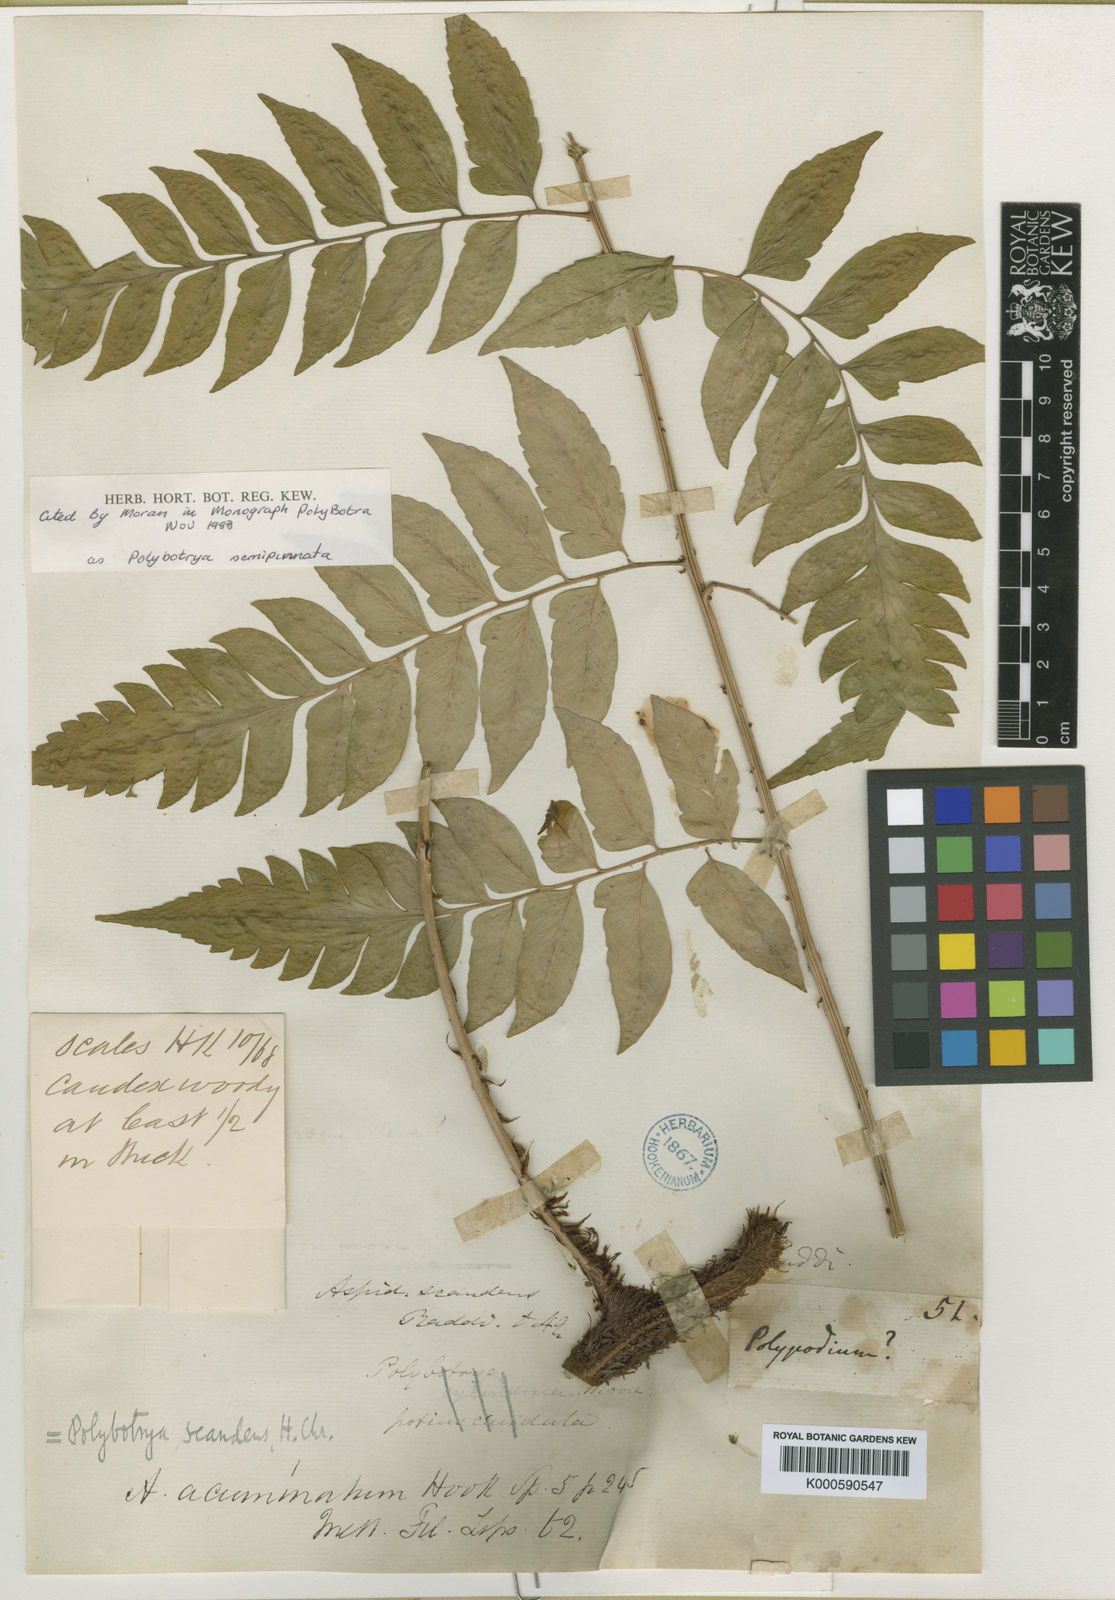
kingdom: Plantae
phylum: Tracheophyta
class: Polypodiopsida
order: Polypodiales
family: Dryopteridaceae
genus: Polybotrya
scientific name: Polybotrya caudata
